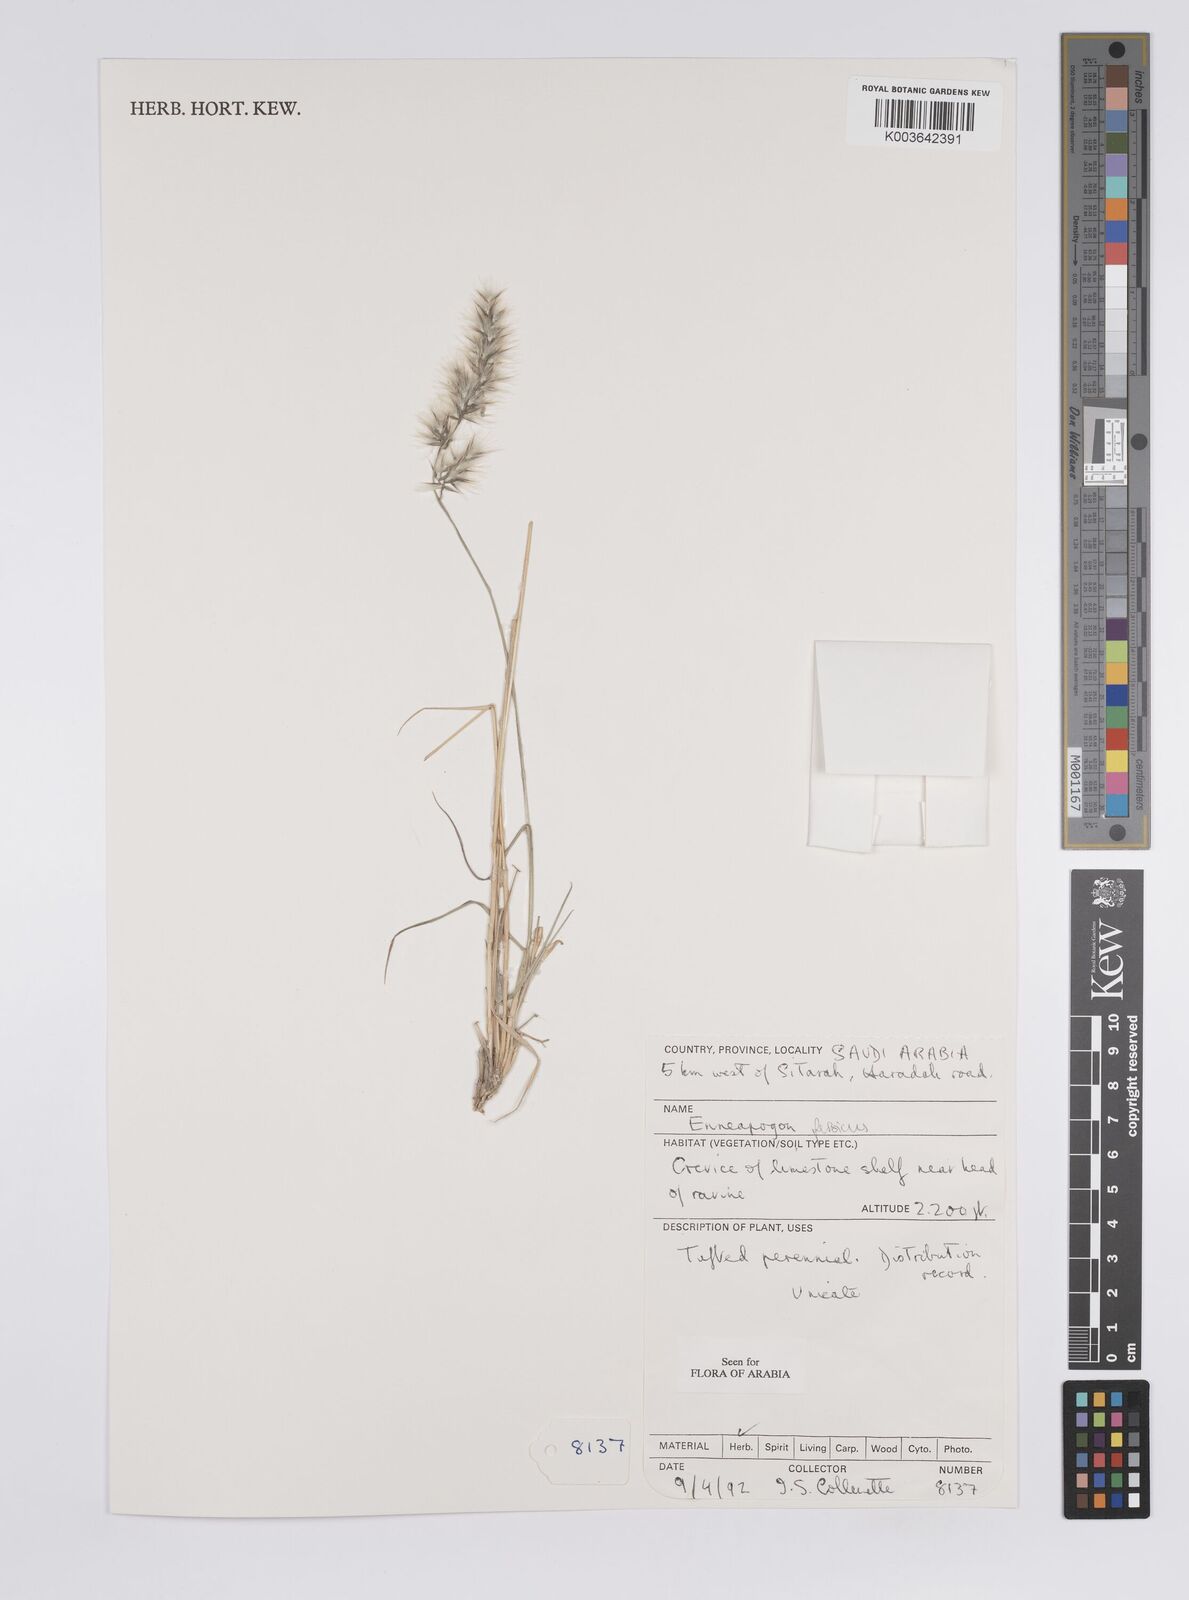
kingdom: Plantae
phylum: Tracheophyta
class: Liliopsida
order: Poales
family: Poaceae
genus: Enneapogon
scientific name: Enneapogon persicus
